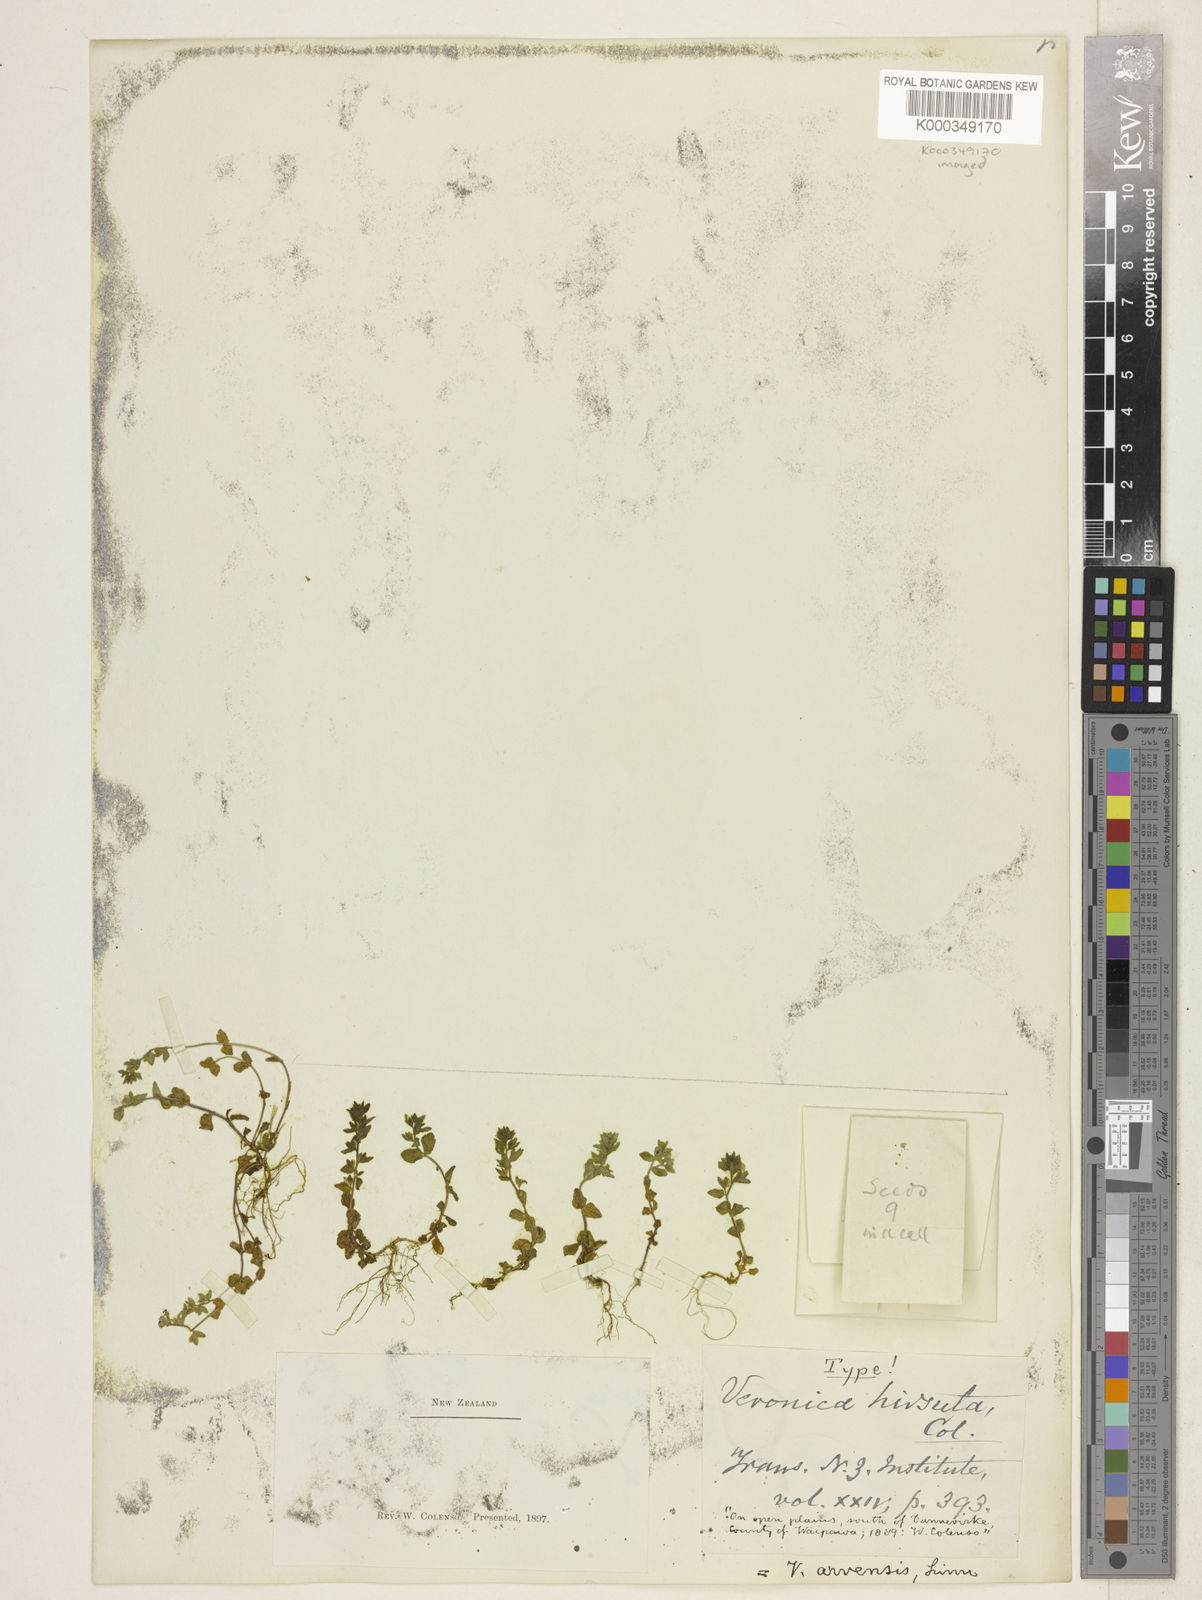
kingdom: Plantae
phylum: Tracheophyta
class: Magnoliopsida
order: Lamiales
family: Plantaginaceae
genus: Veronica
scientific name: Veronica arvensis
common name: Corn speedwell
